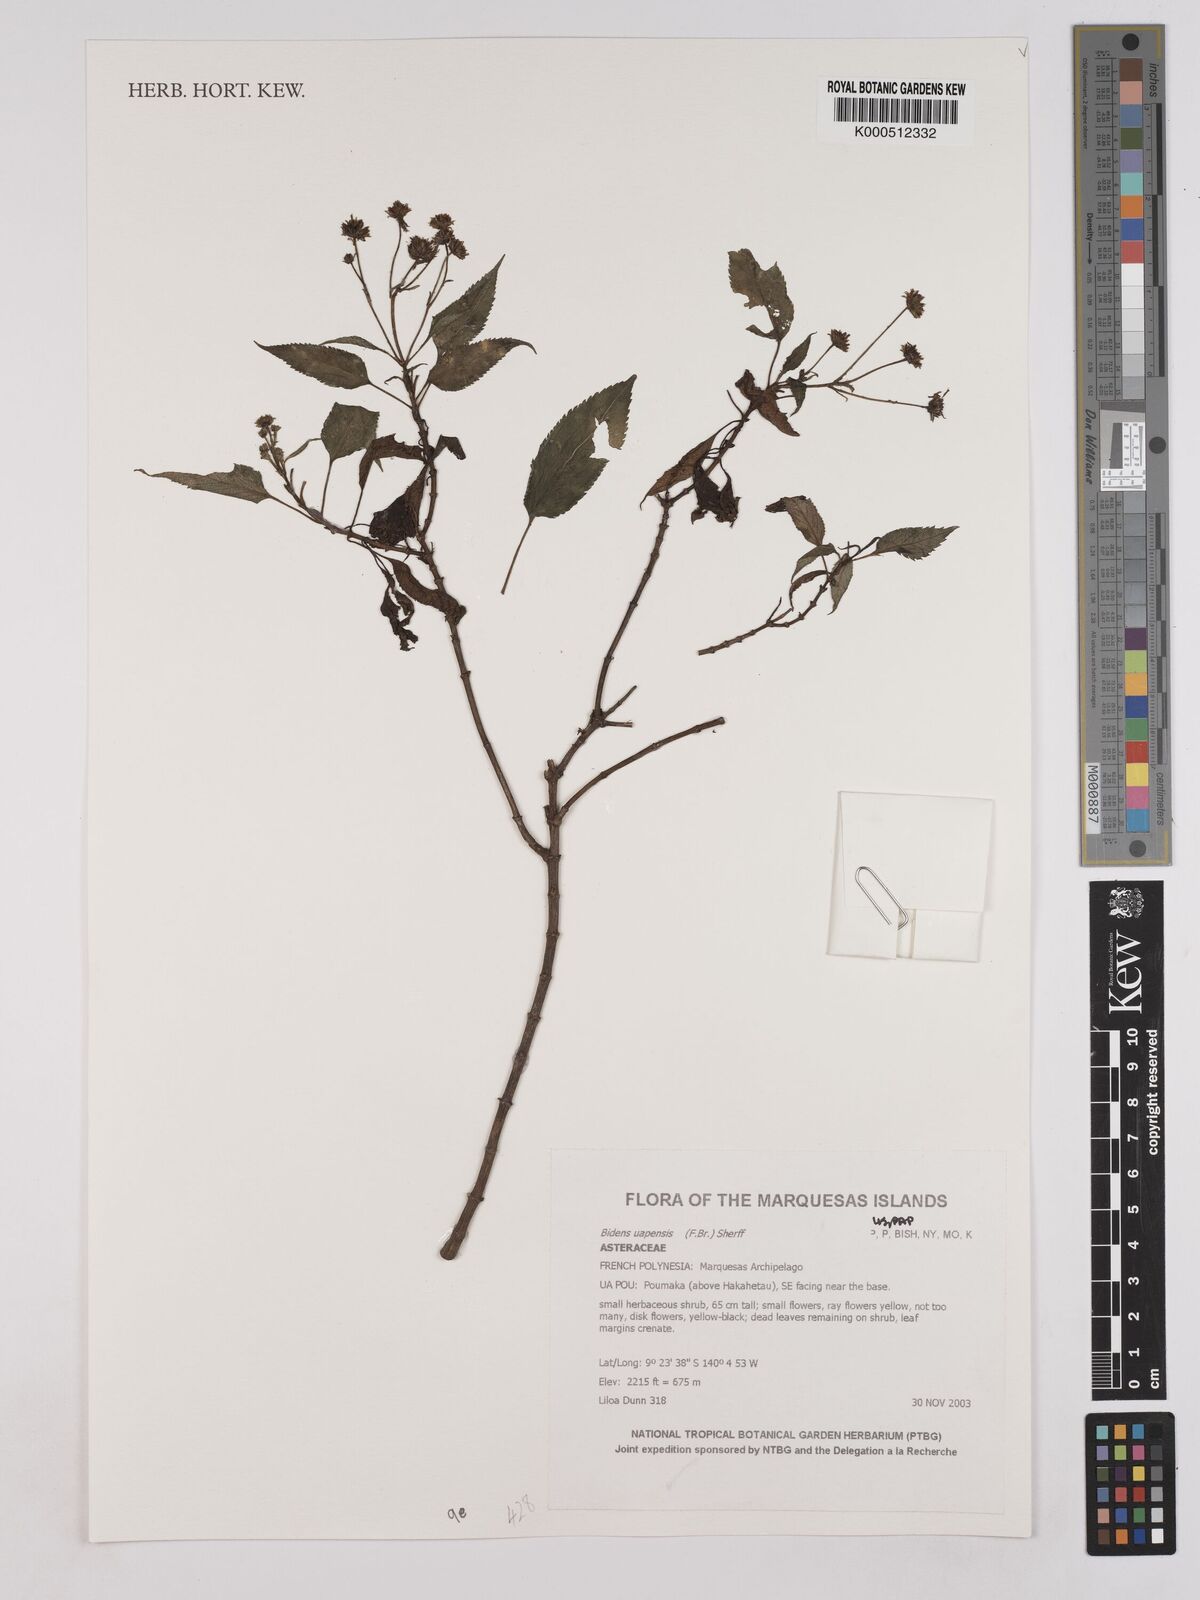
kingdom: Plantae
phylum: Tracheophyta
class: Magnoliopsida
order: Asterales
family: Asteraceae
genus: Bidens
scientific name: Bidens uapensis
